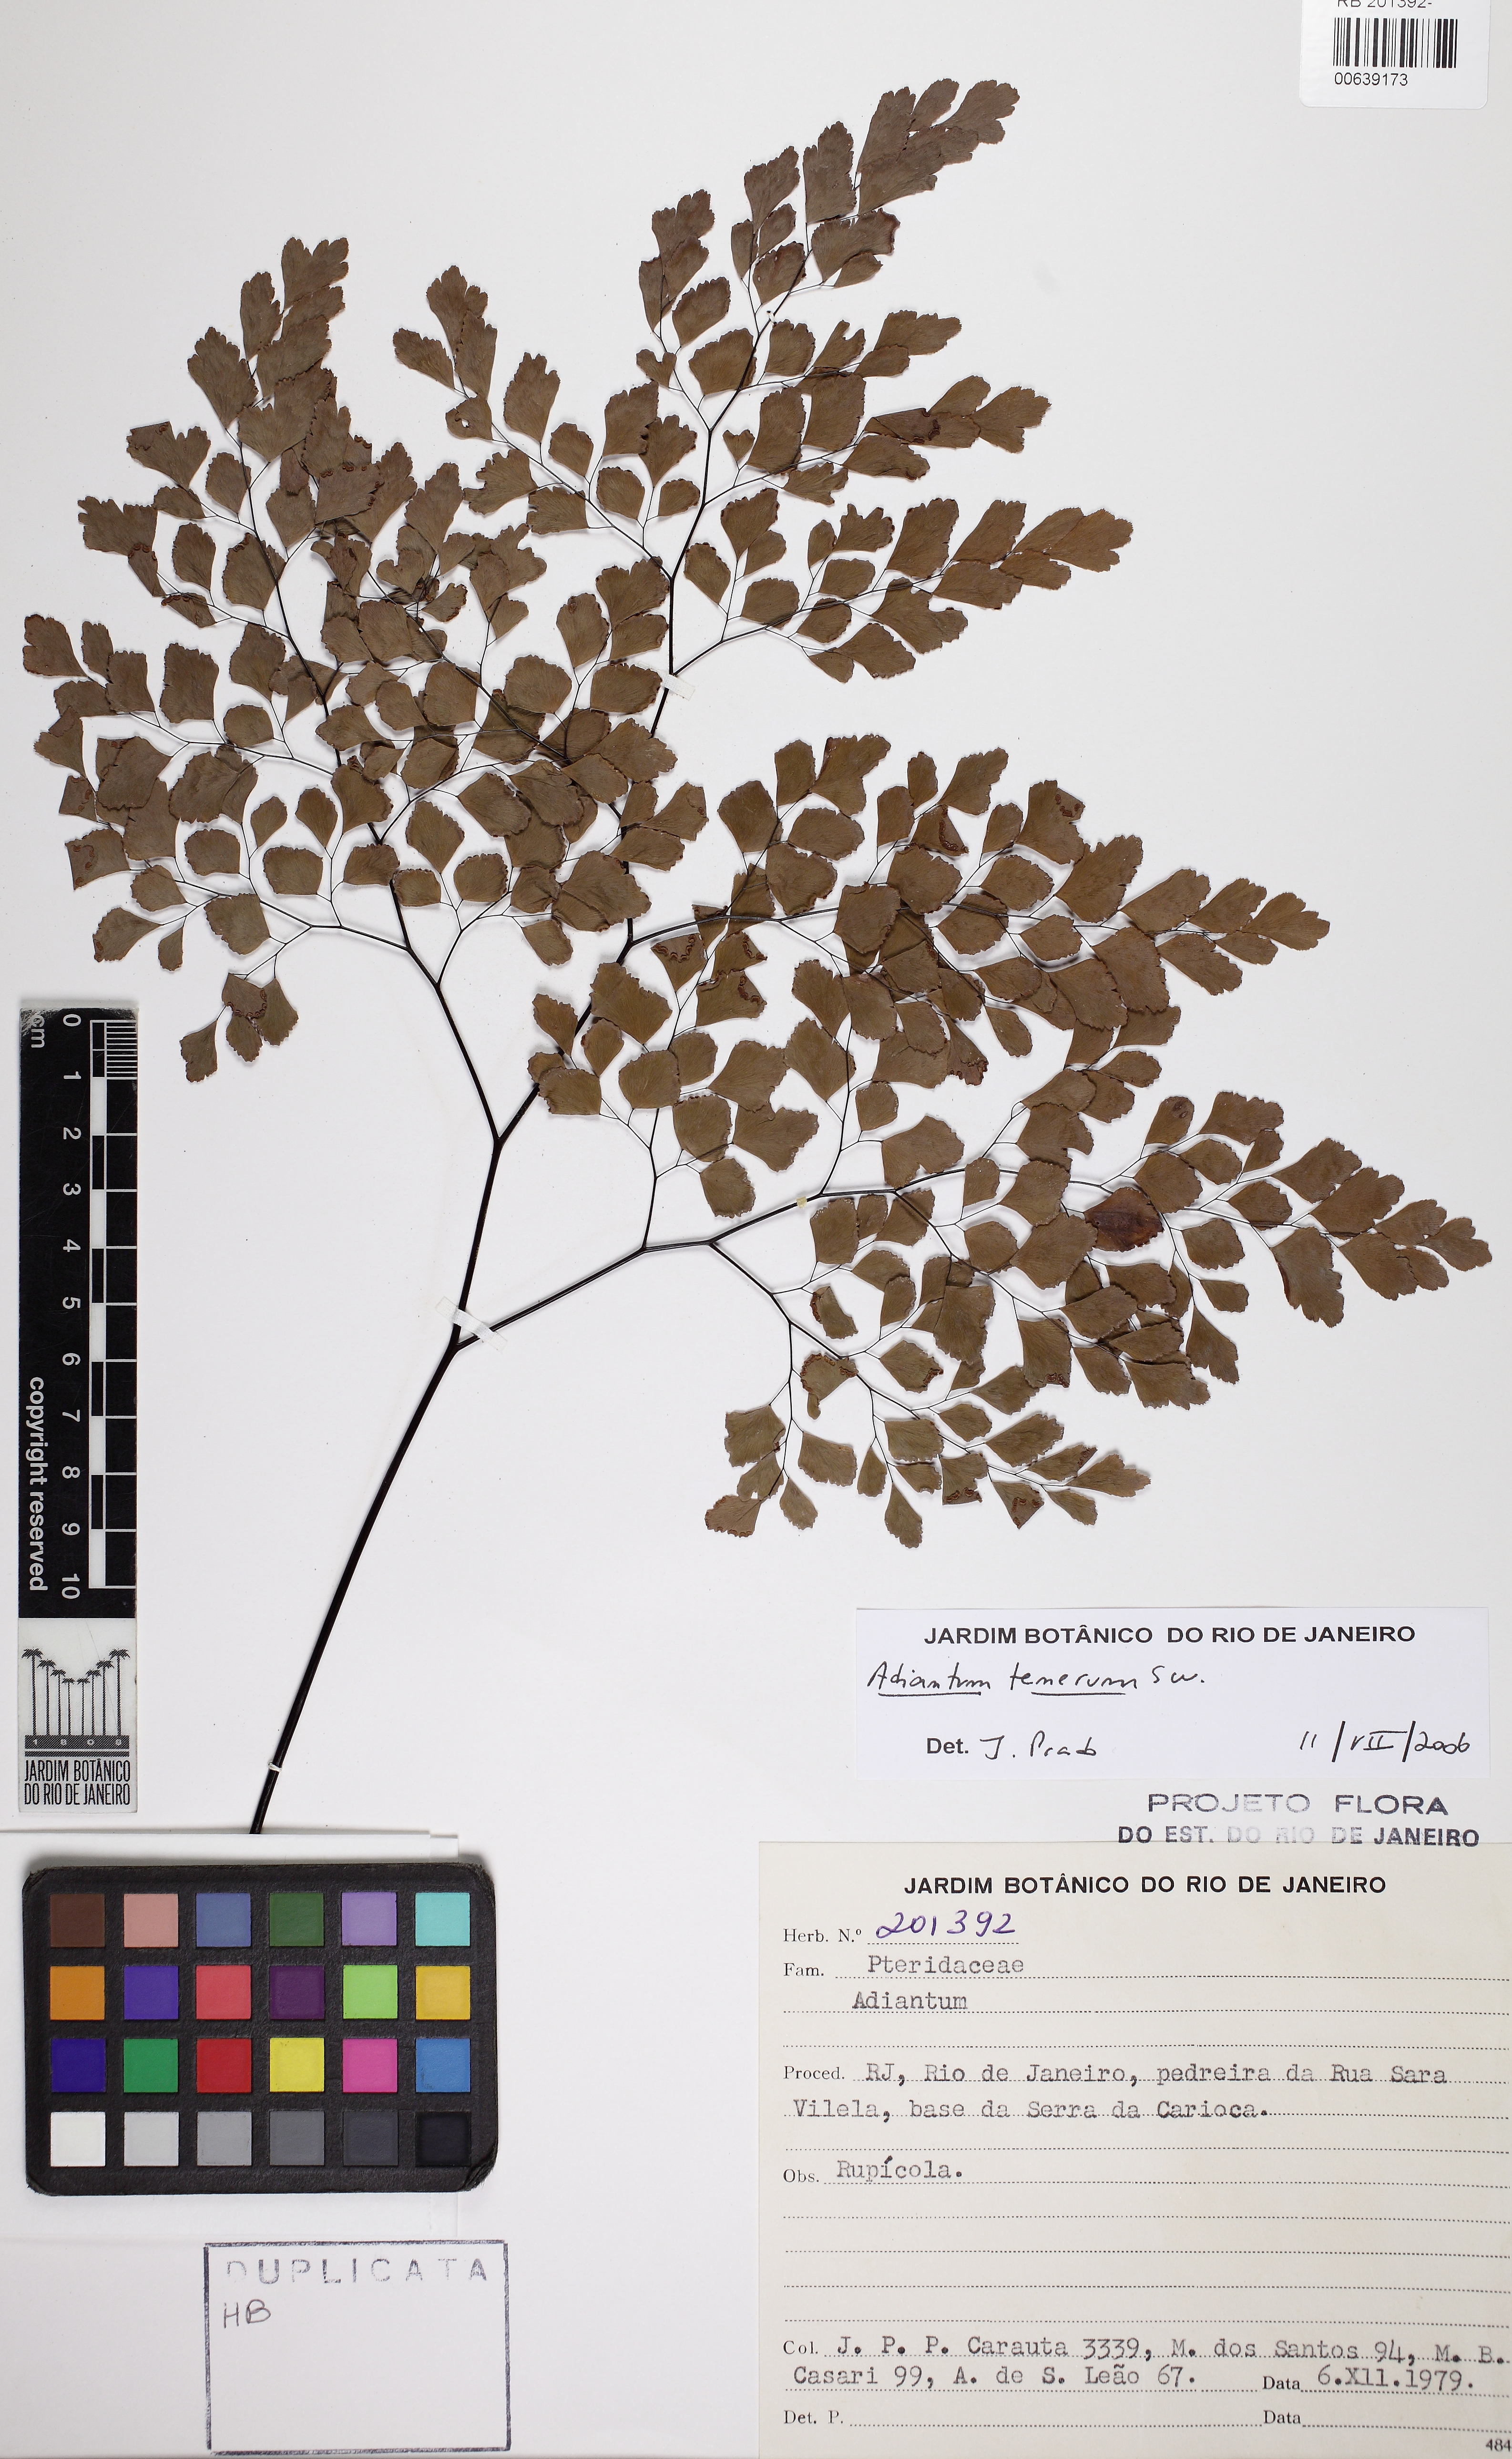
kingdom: Plantae
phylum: Tracheophyta
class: Polypodiopsida
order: Polypodiales
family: Pteridaceae
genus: Adiantum
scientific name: Adiantum tenerum
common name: Fan maidenhair
